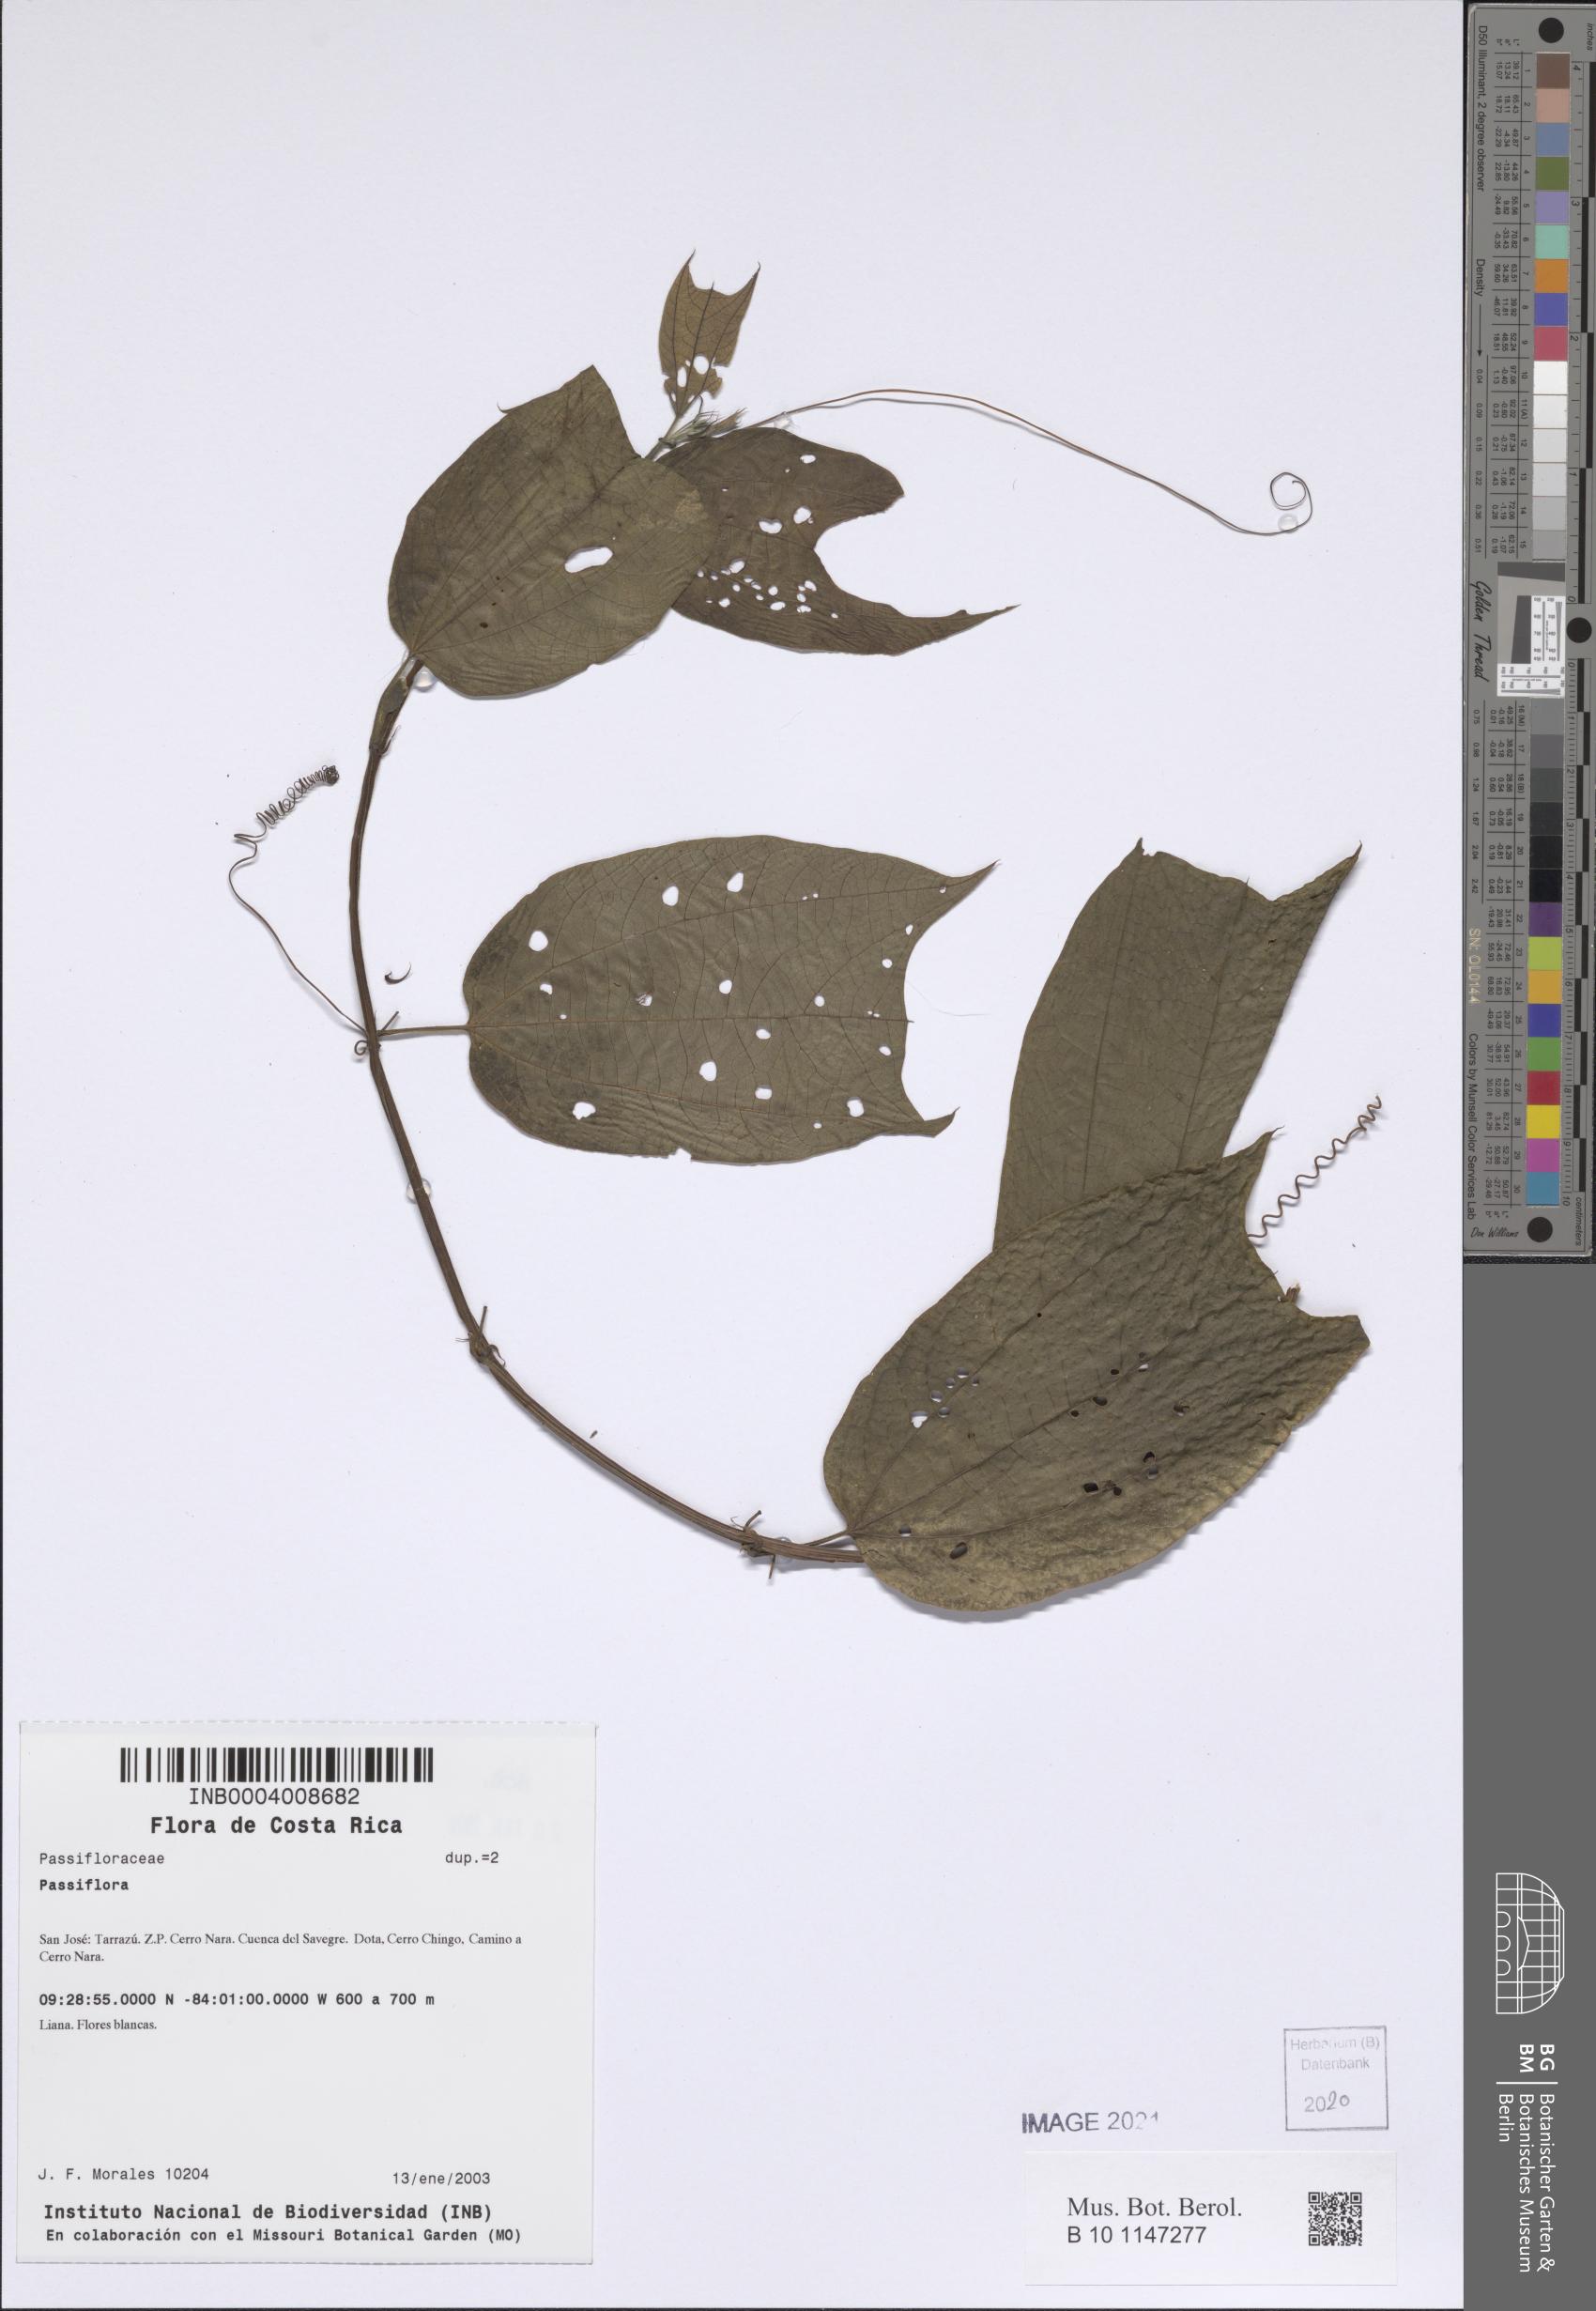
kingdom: Plantae
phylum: Tracheophyta
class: Magnoliopsida
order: Malpighiales
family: Passifloraceae
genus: Passiflora
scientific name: Passiflora
